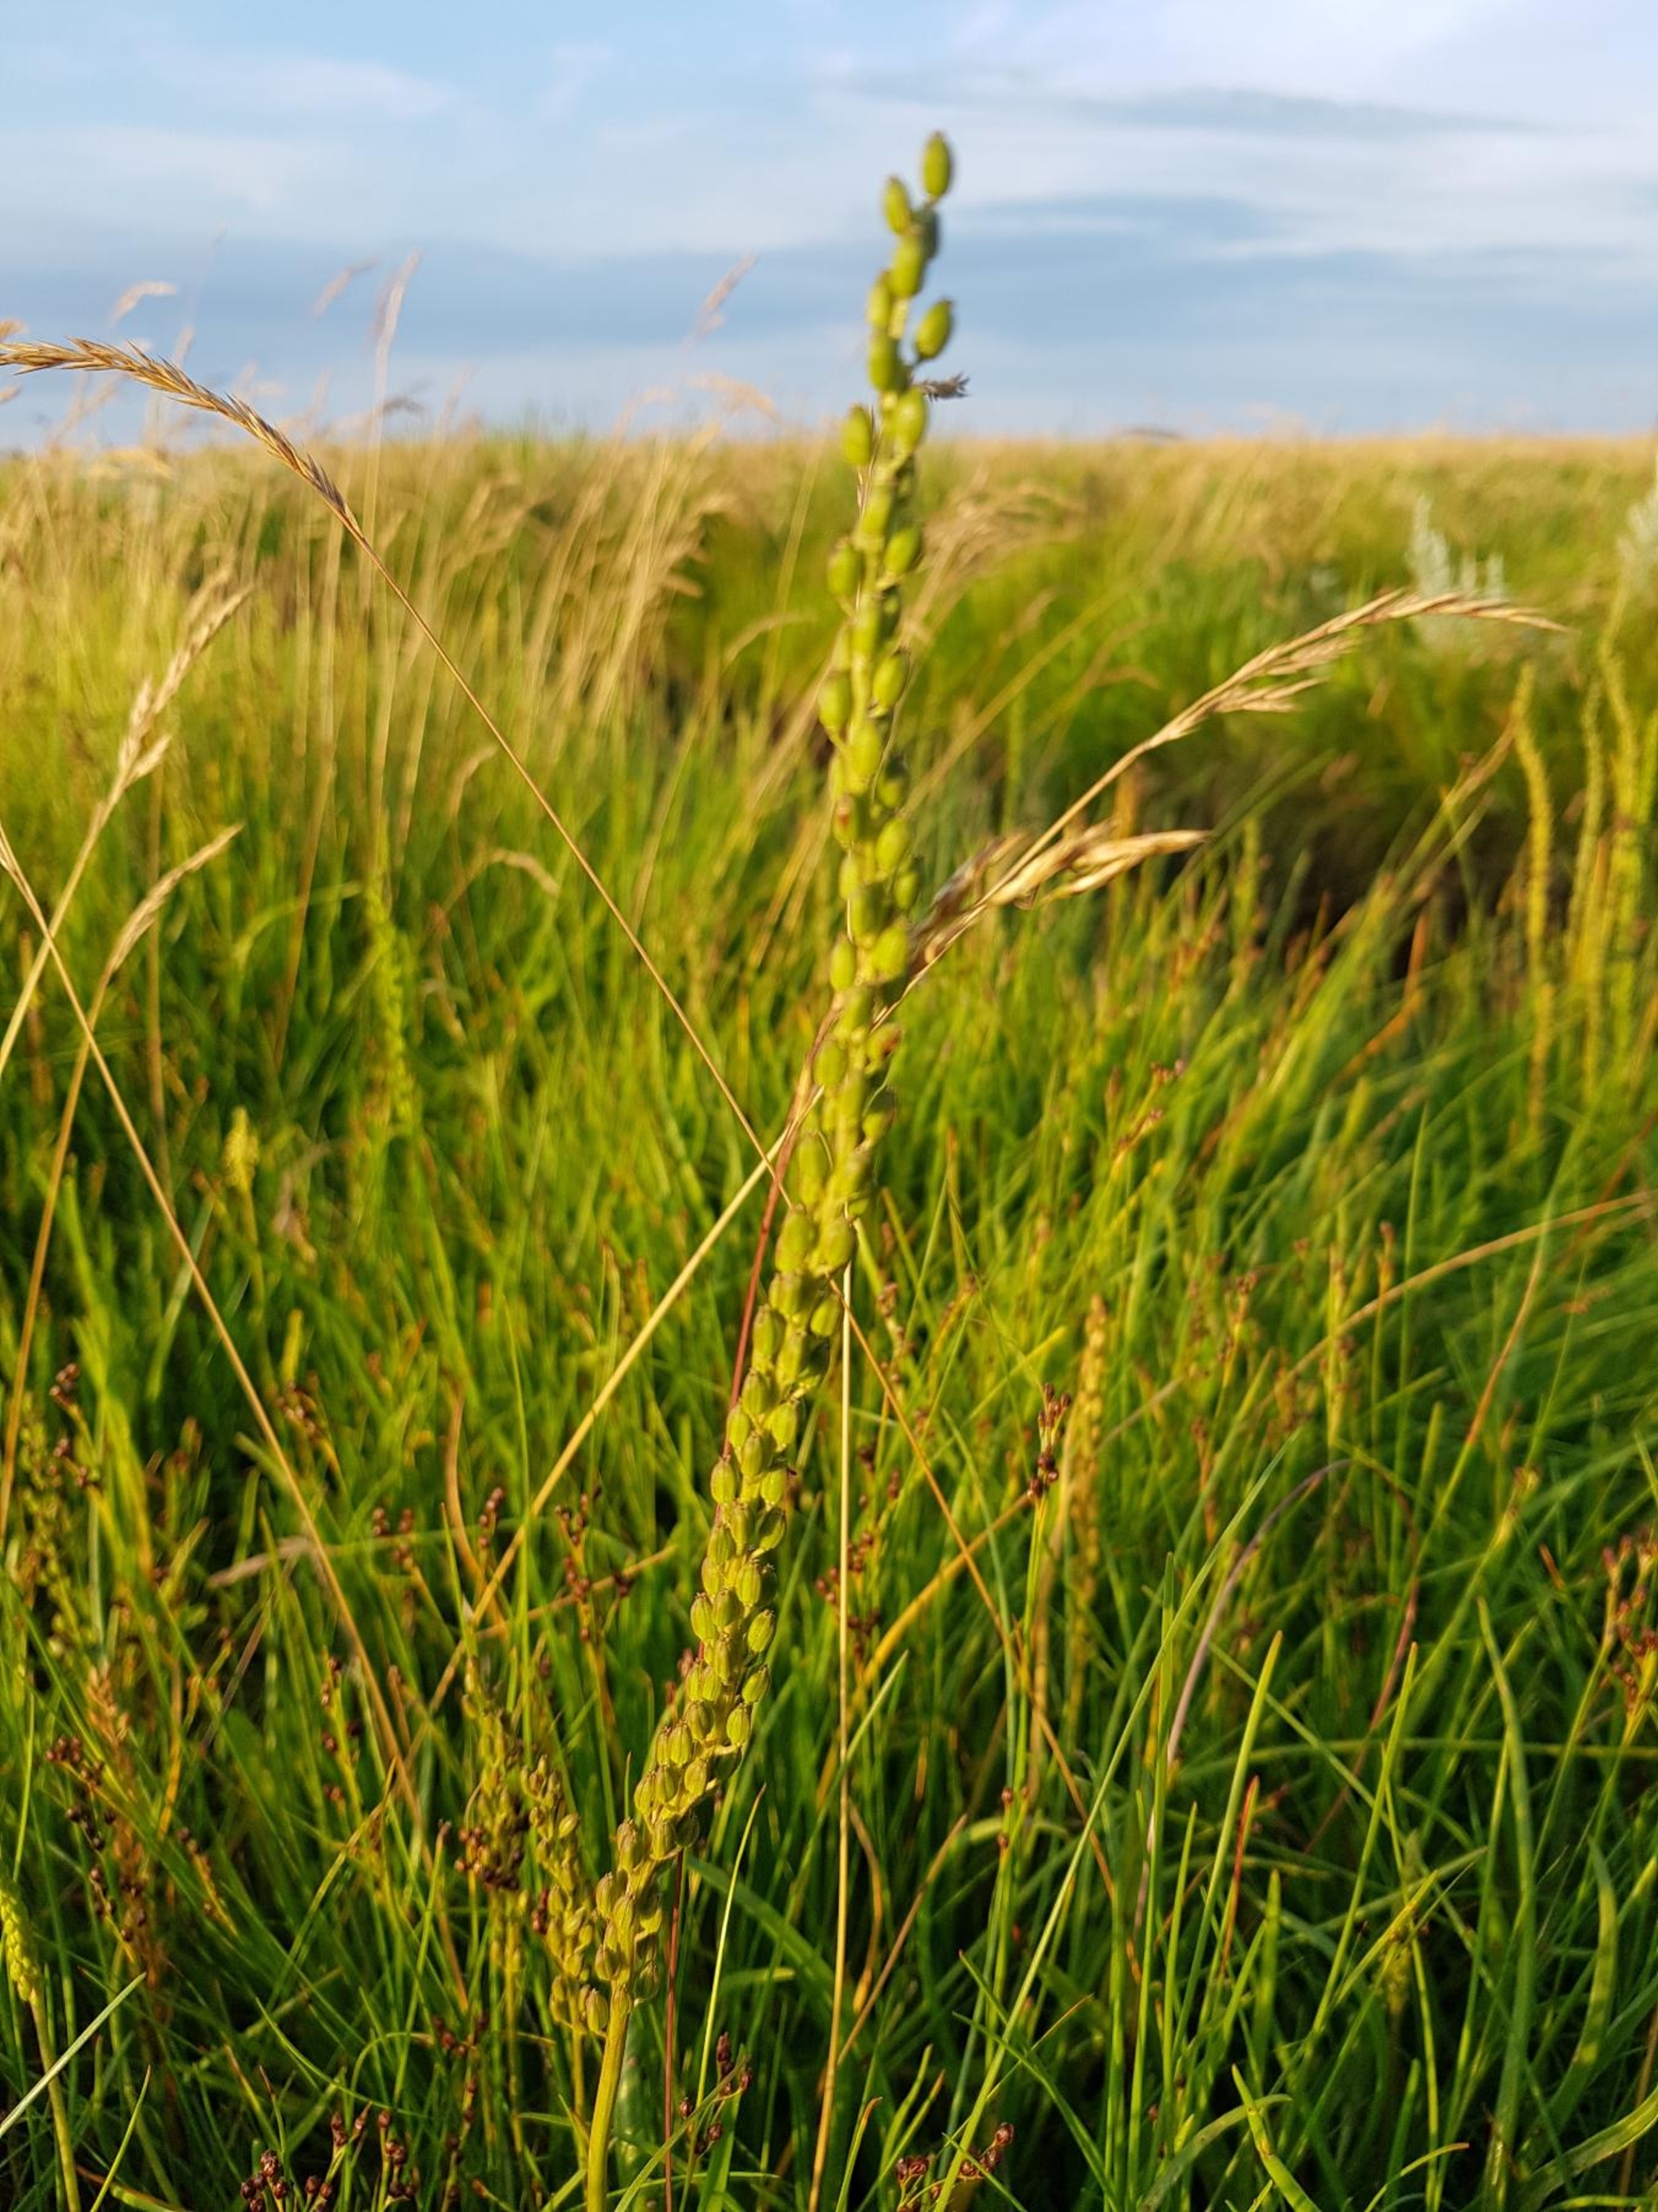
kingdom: Plantae
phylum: Tracheophyta
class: Liliopsida
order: Alismatales
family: Juncaginaceae
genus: Triglochin
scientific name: Triglochin maritima
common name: Strand-trehage
